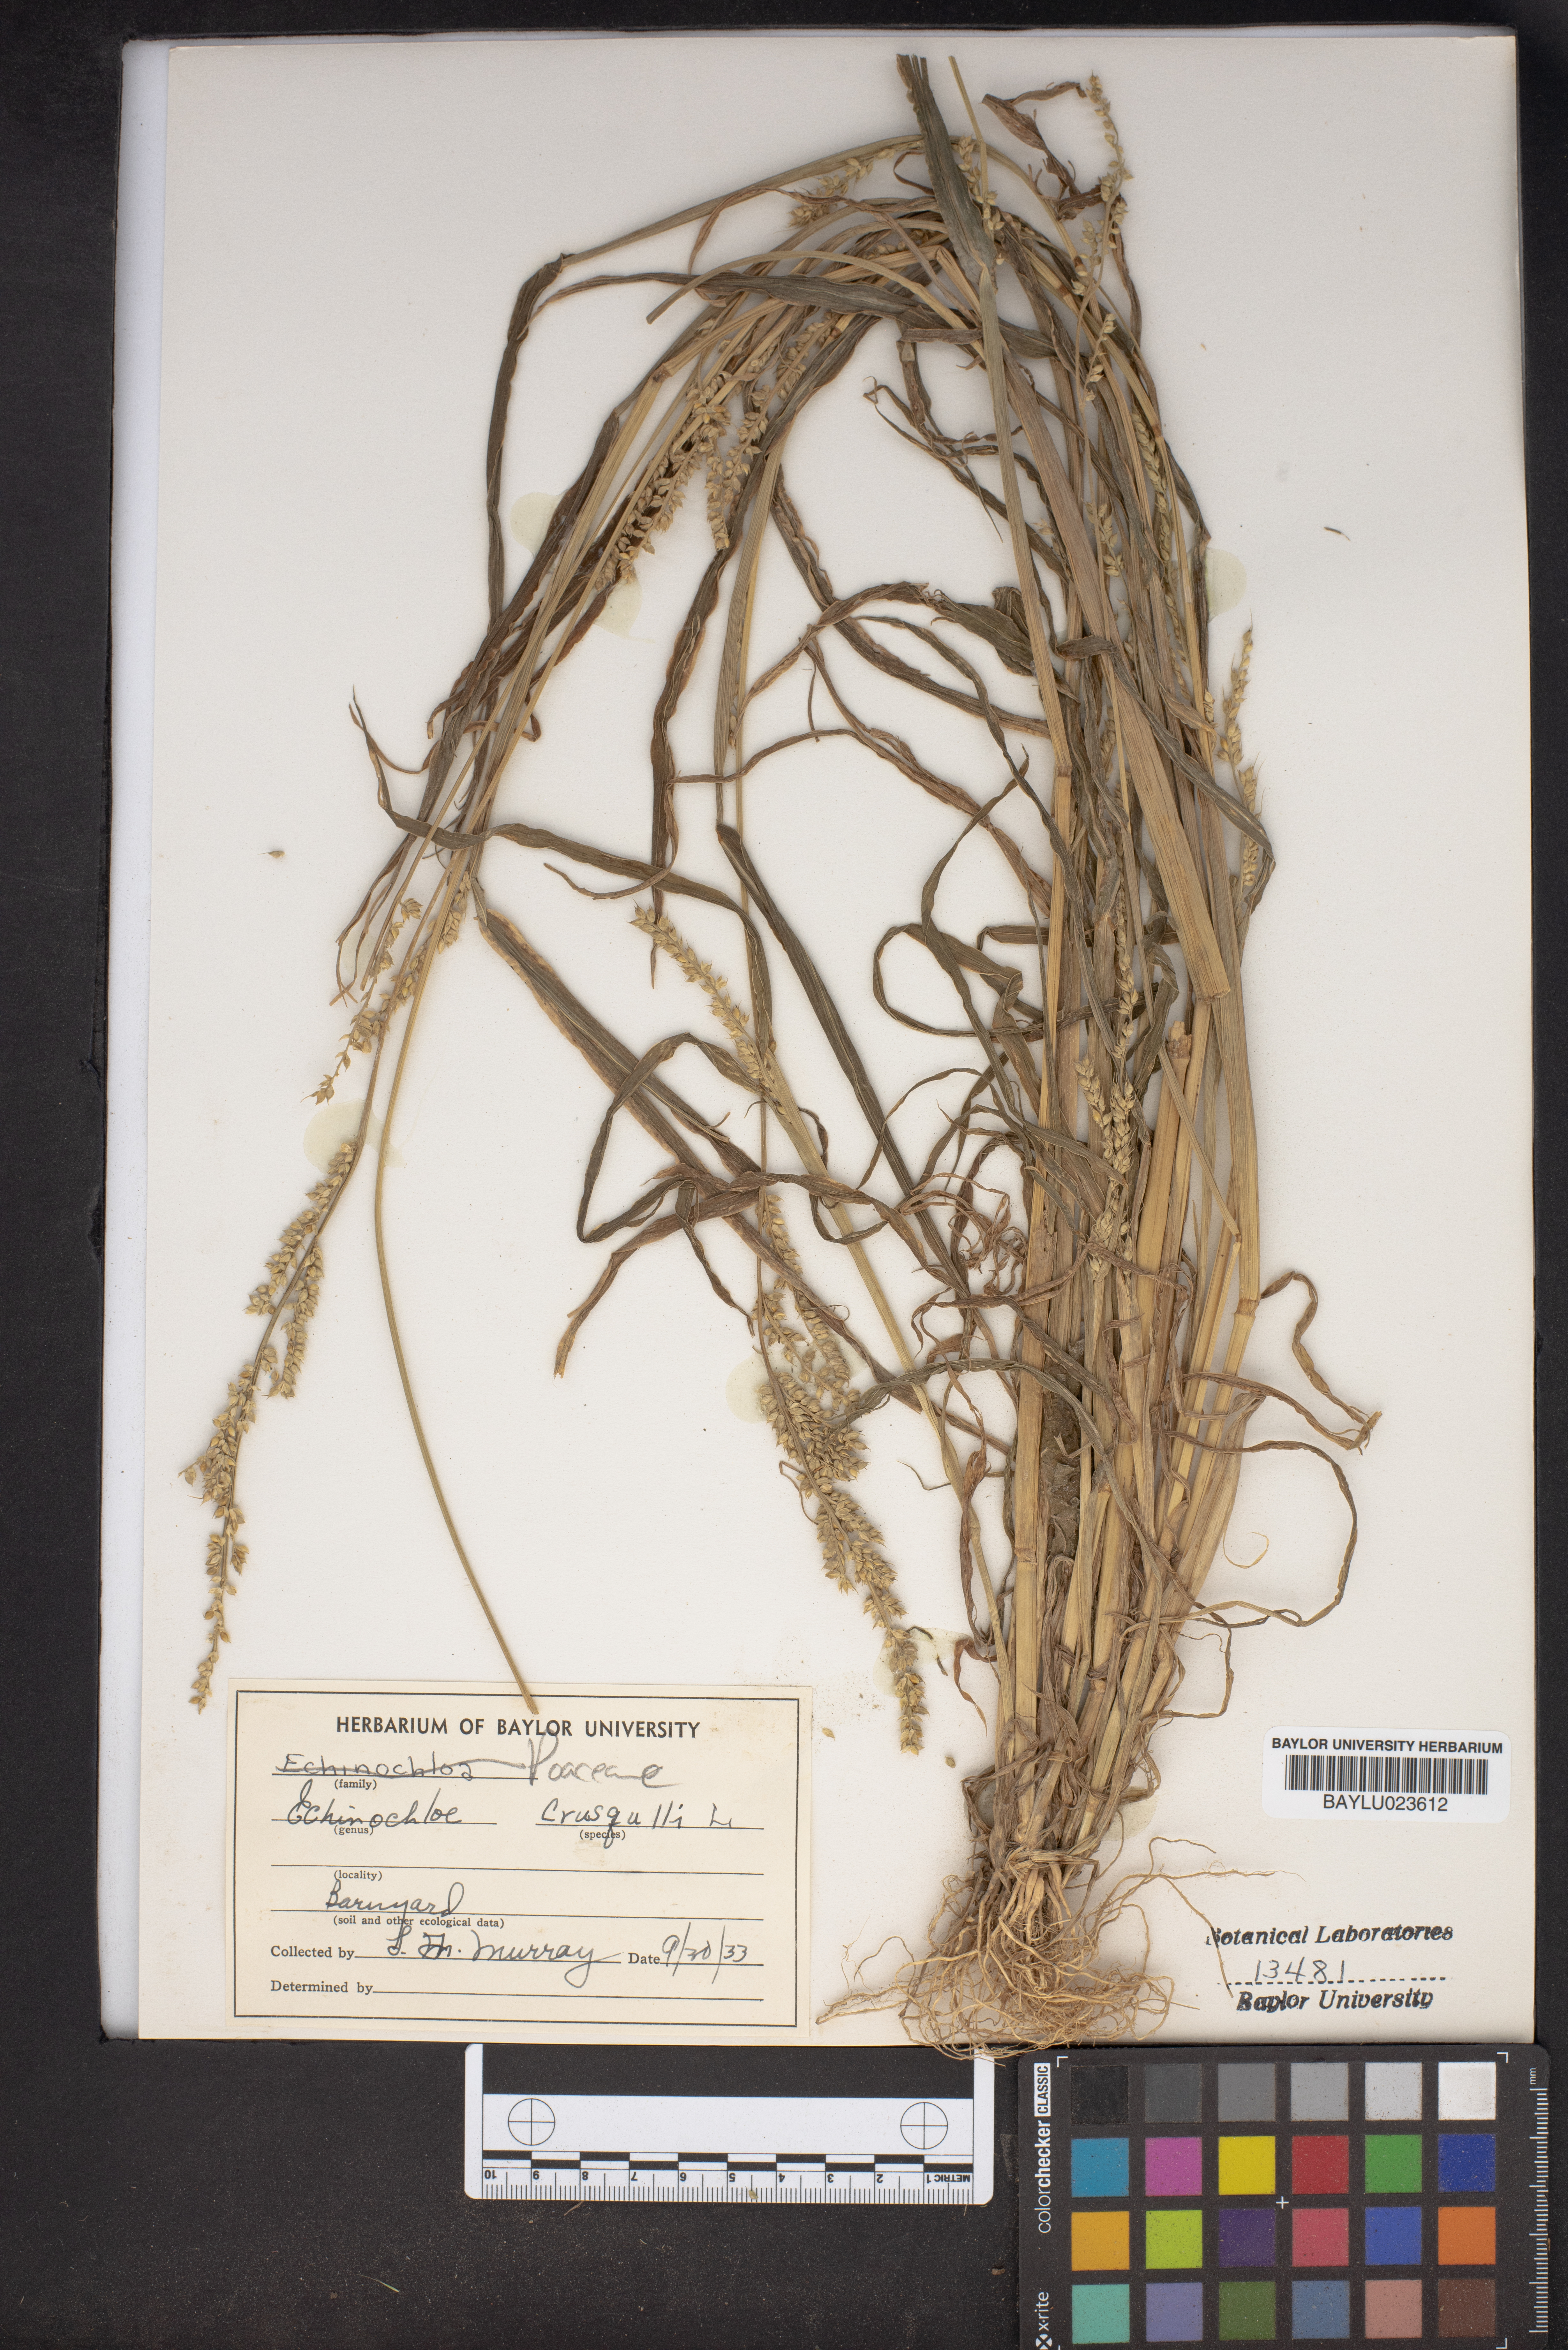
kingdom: Plantae
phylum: Tracheophyta
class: Liliopsida
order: Poales
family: Poaceae
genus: Echinochloa
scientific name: Echinochloa crus-galli
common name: Cockspur
